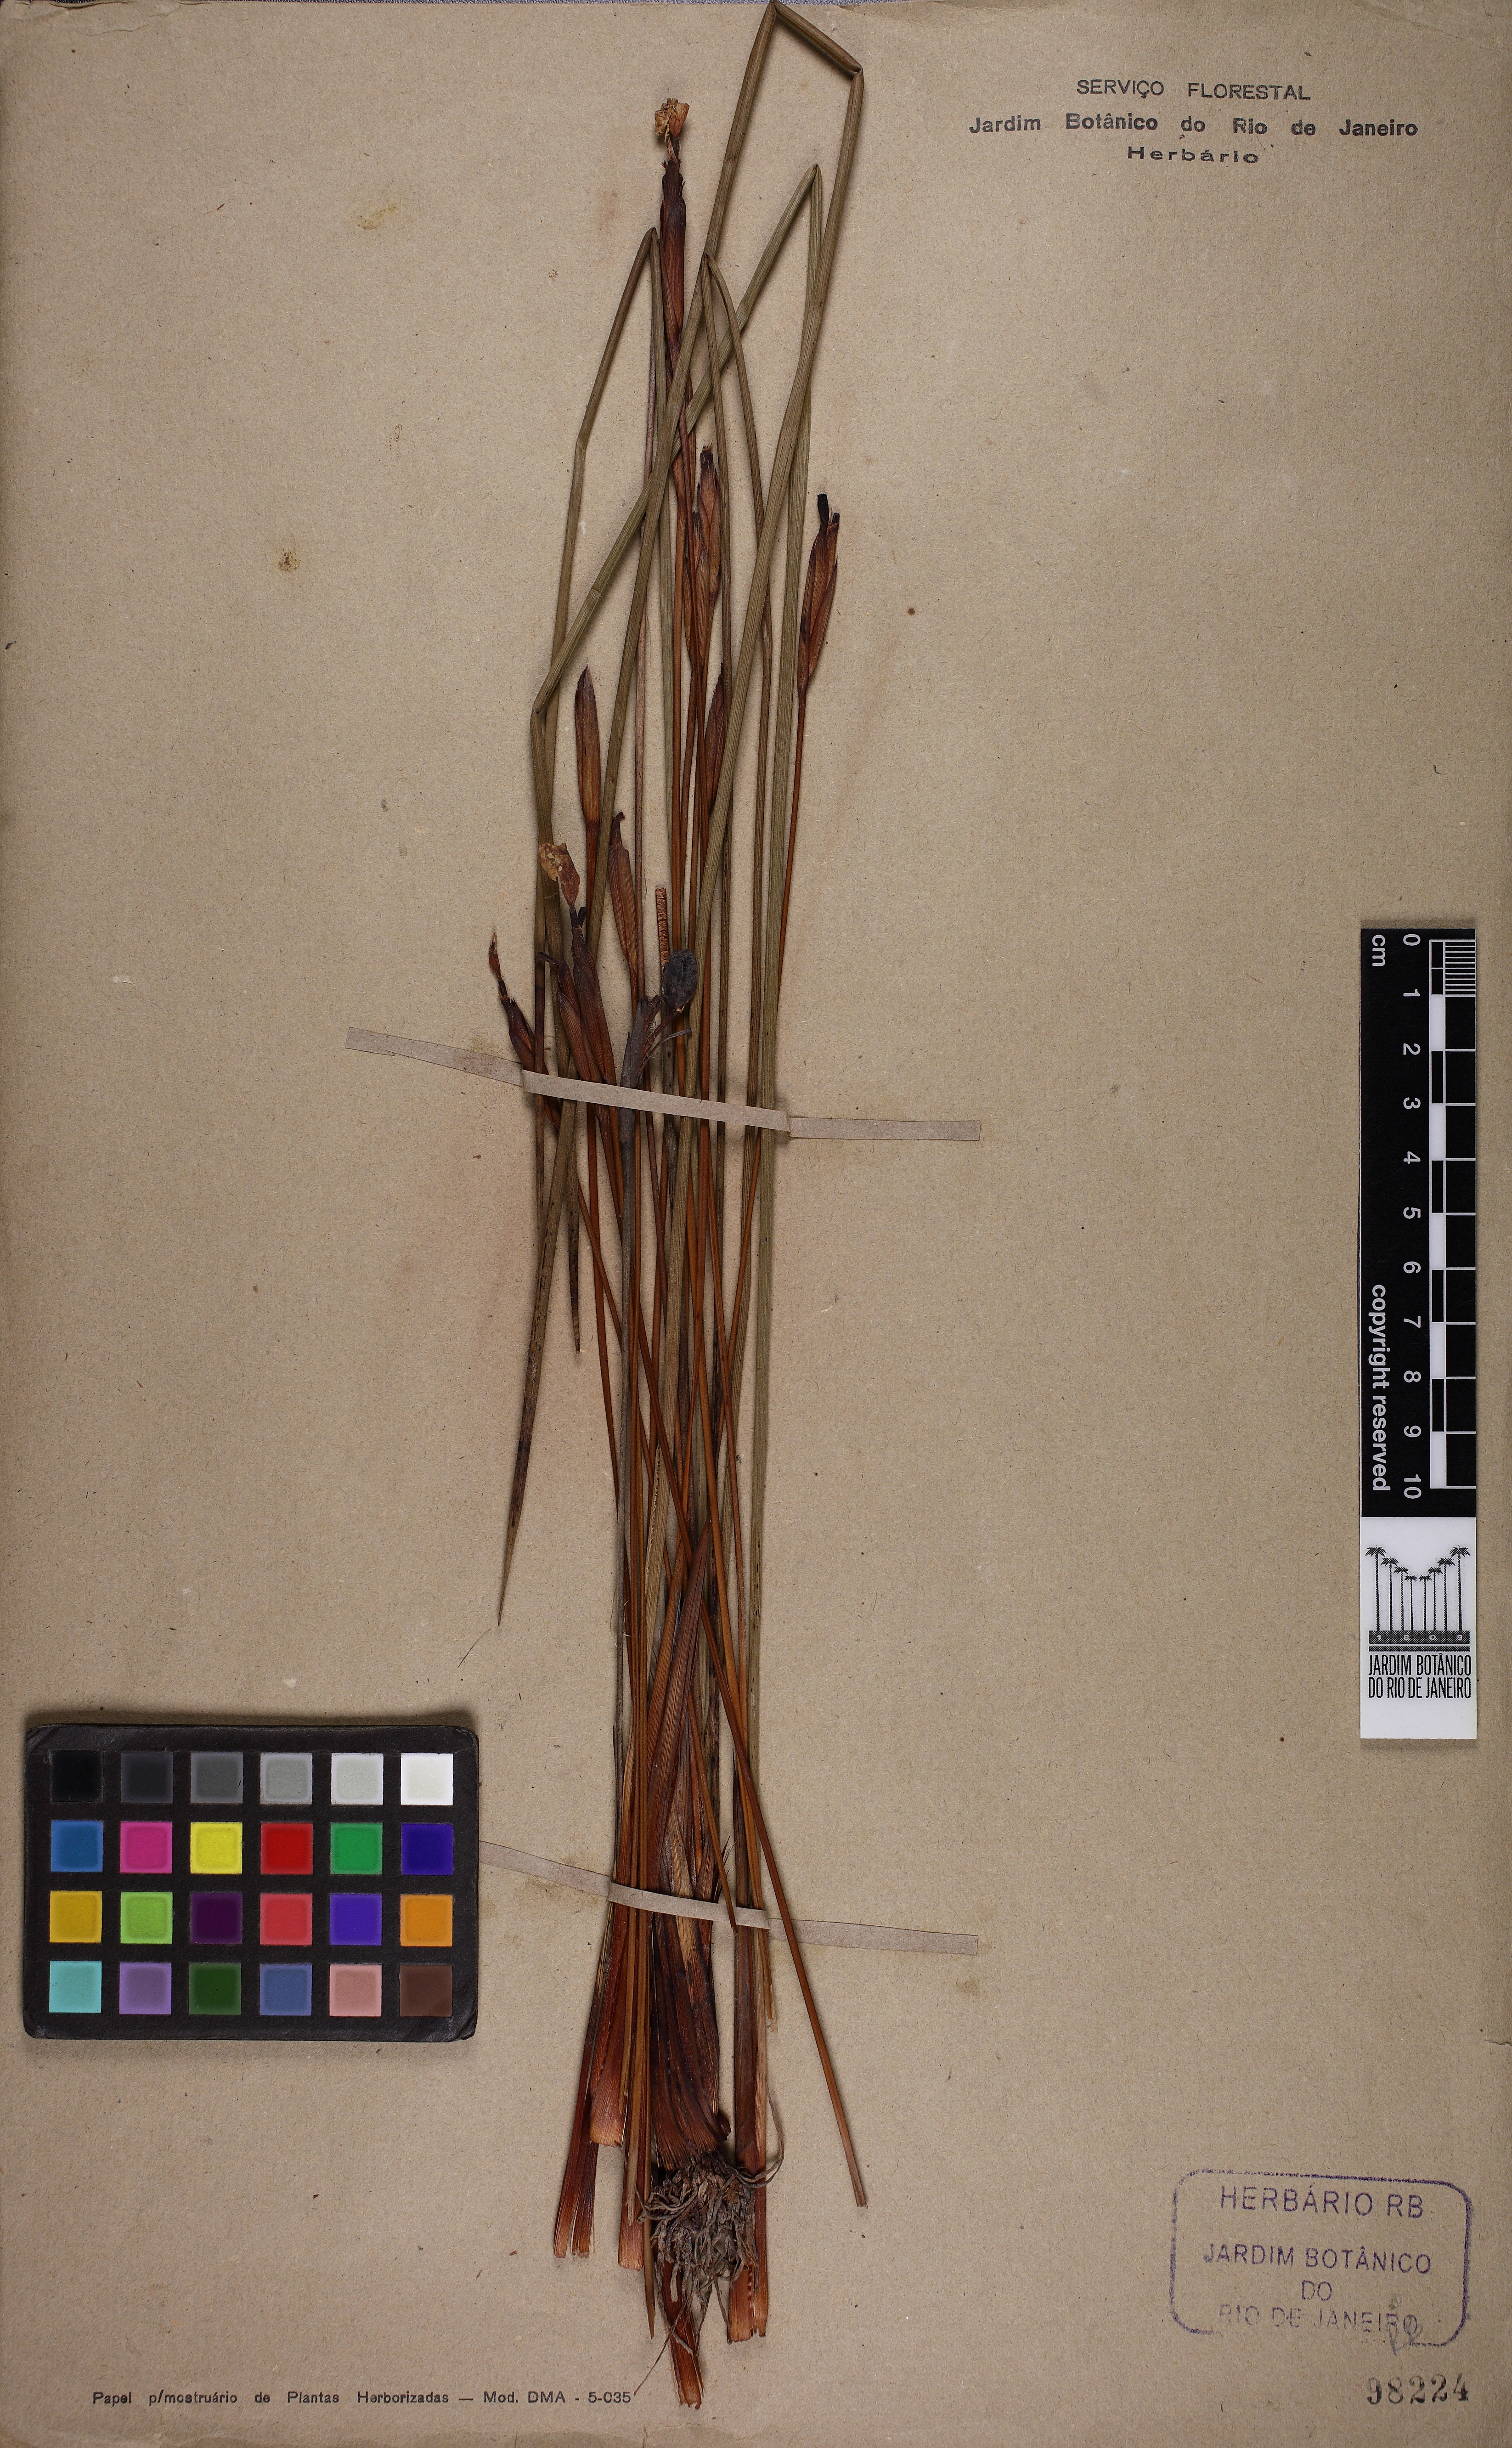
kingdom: Plantae
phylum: Tracheophyta
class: Liliopsida
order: Asparagales
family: Iridaceae
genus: Trimezia
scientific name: Trimezia juncifolia
